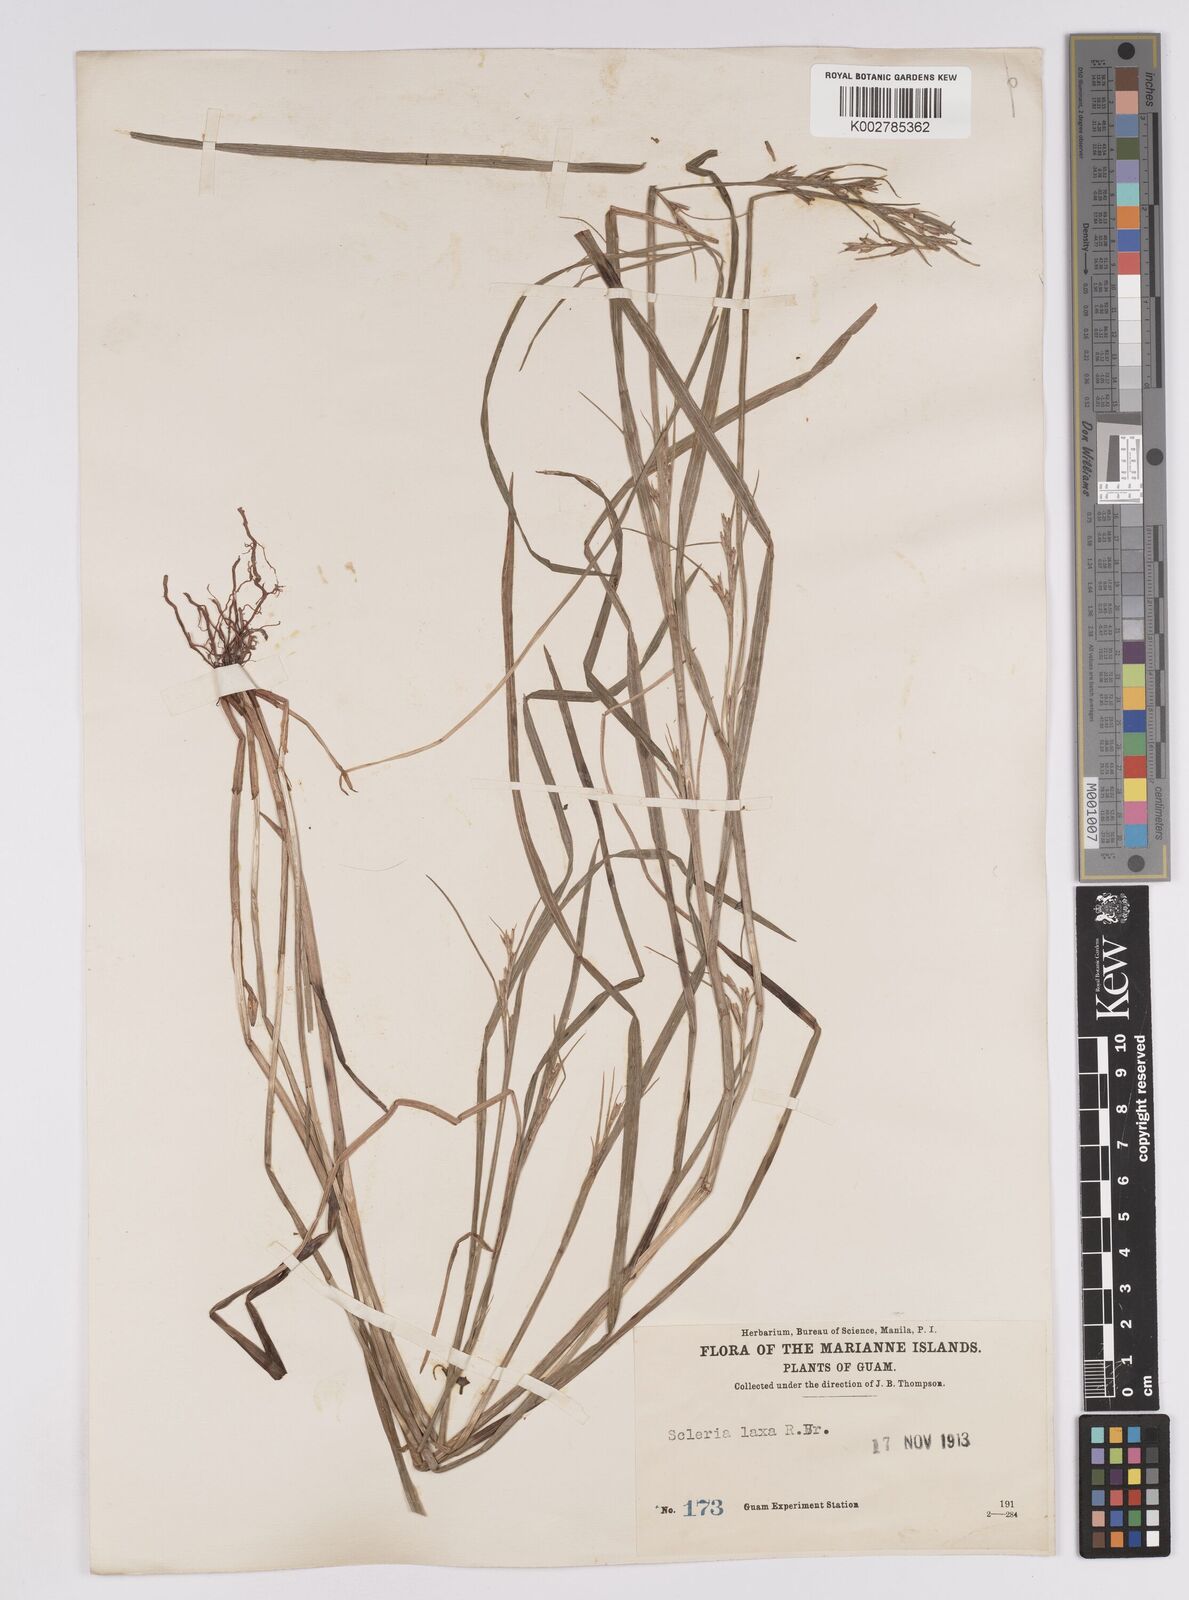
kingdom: Plantae
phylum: Tracheophyta
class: Liliopsida
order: Poales
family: Cyperaceae
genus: Scleria
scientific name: Scleria laxa
